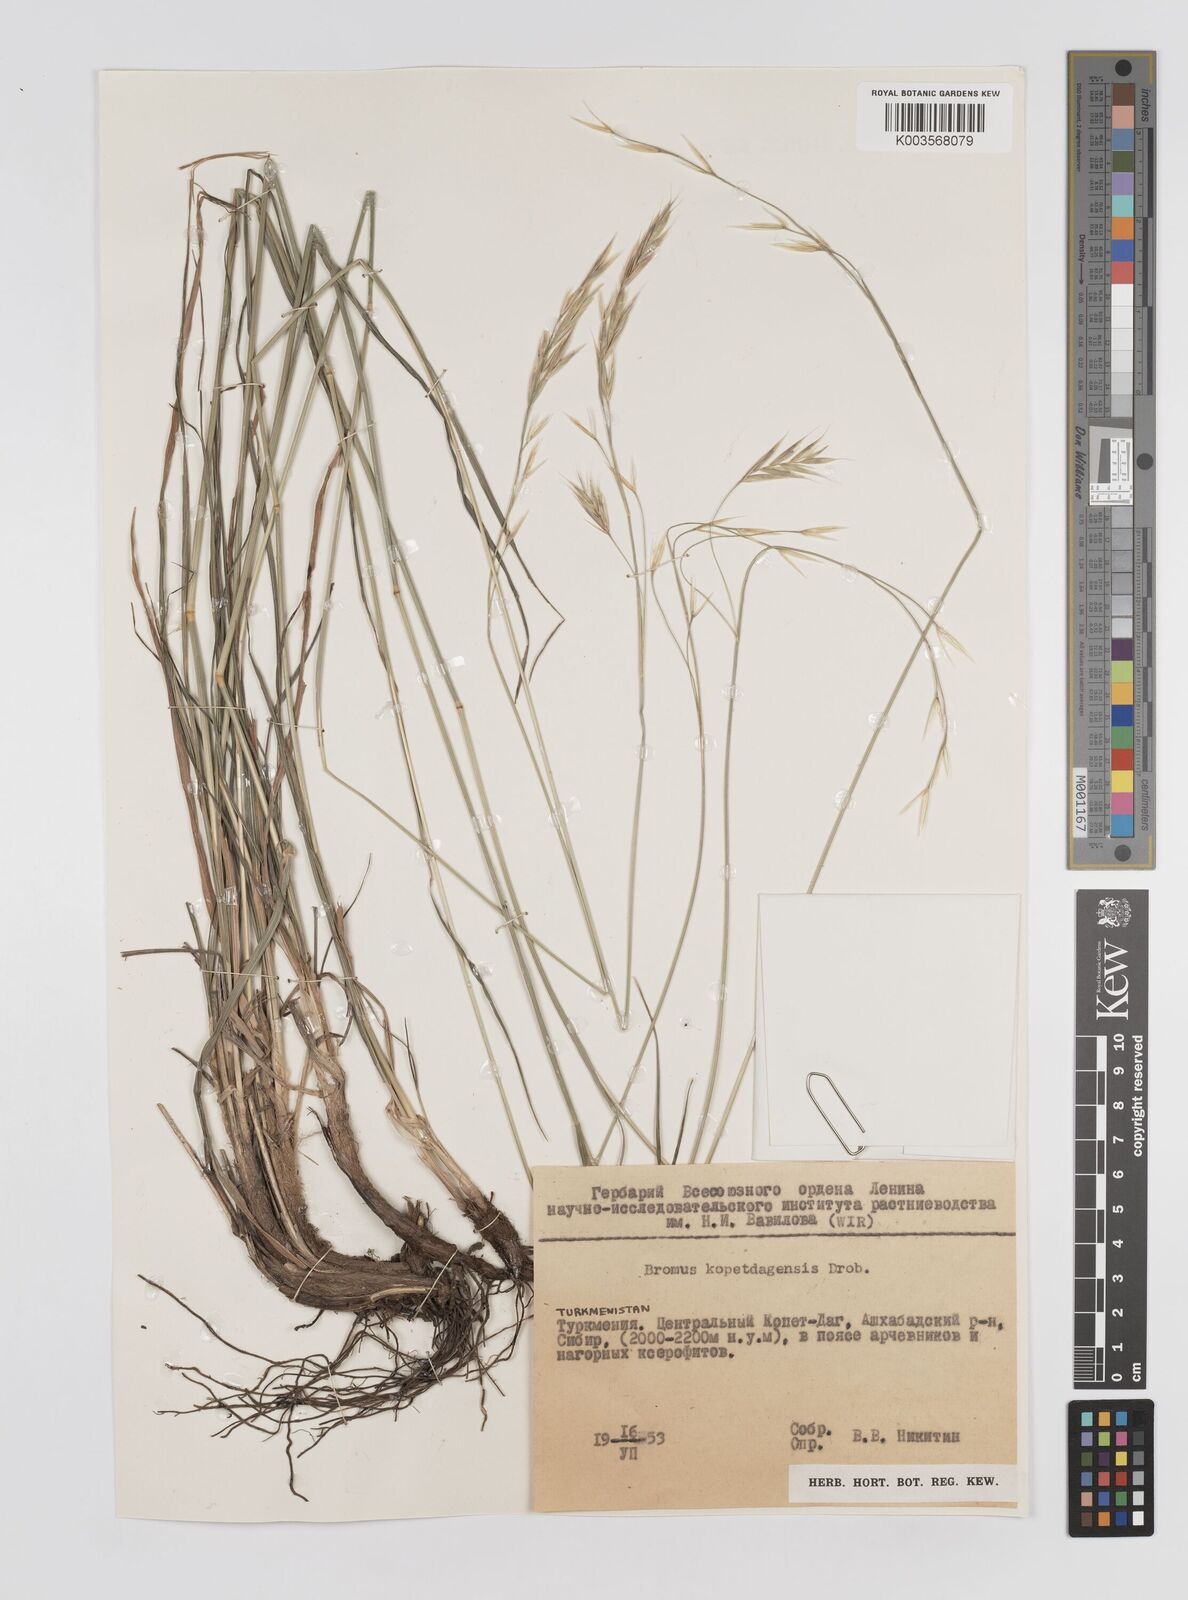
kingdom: Plantae
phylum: Tracheophyta
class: Liliopsida
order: Poales
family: Poaceae
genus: Bromus
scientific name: Bromus kopetdagensis
